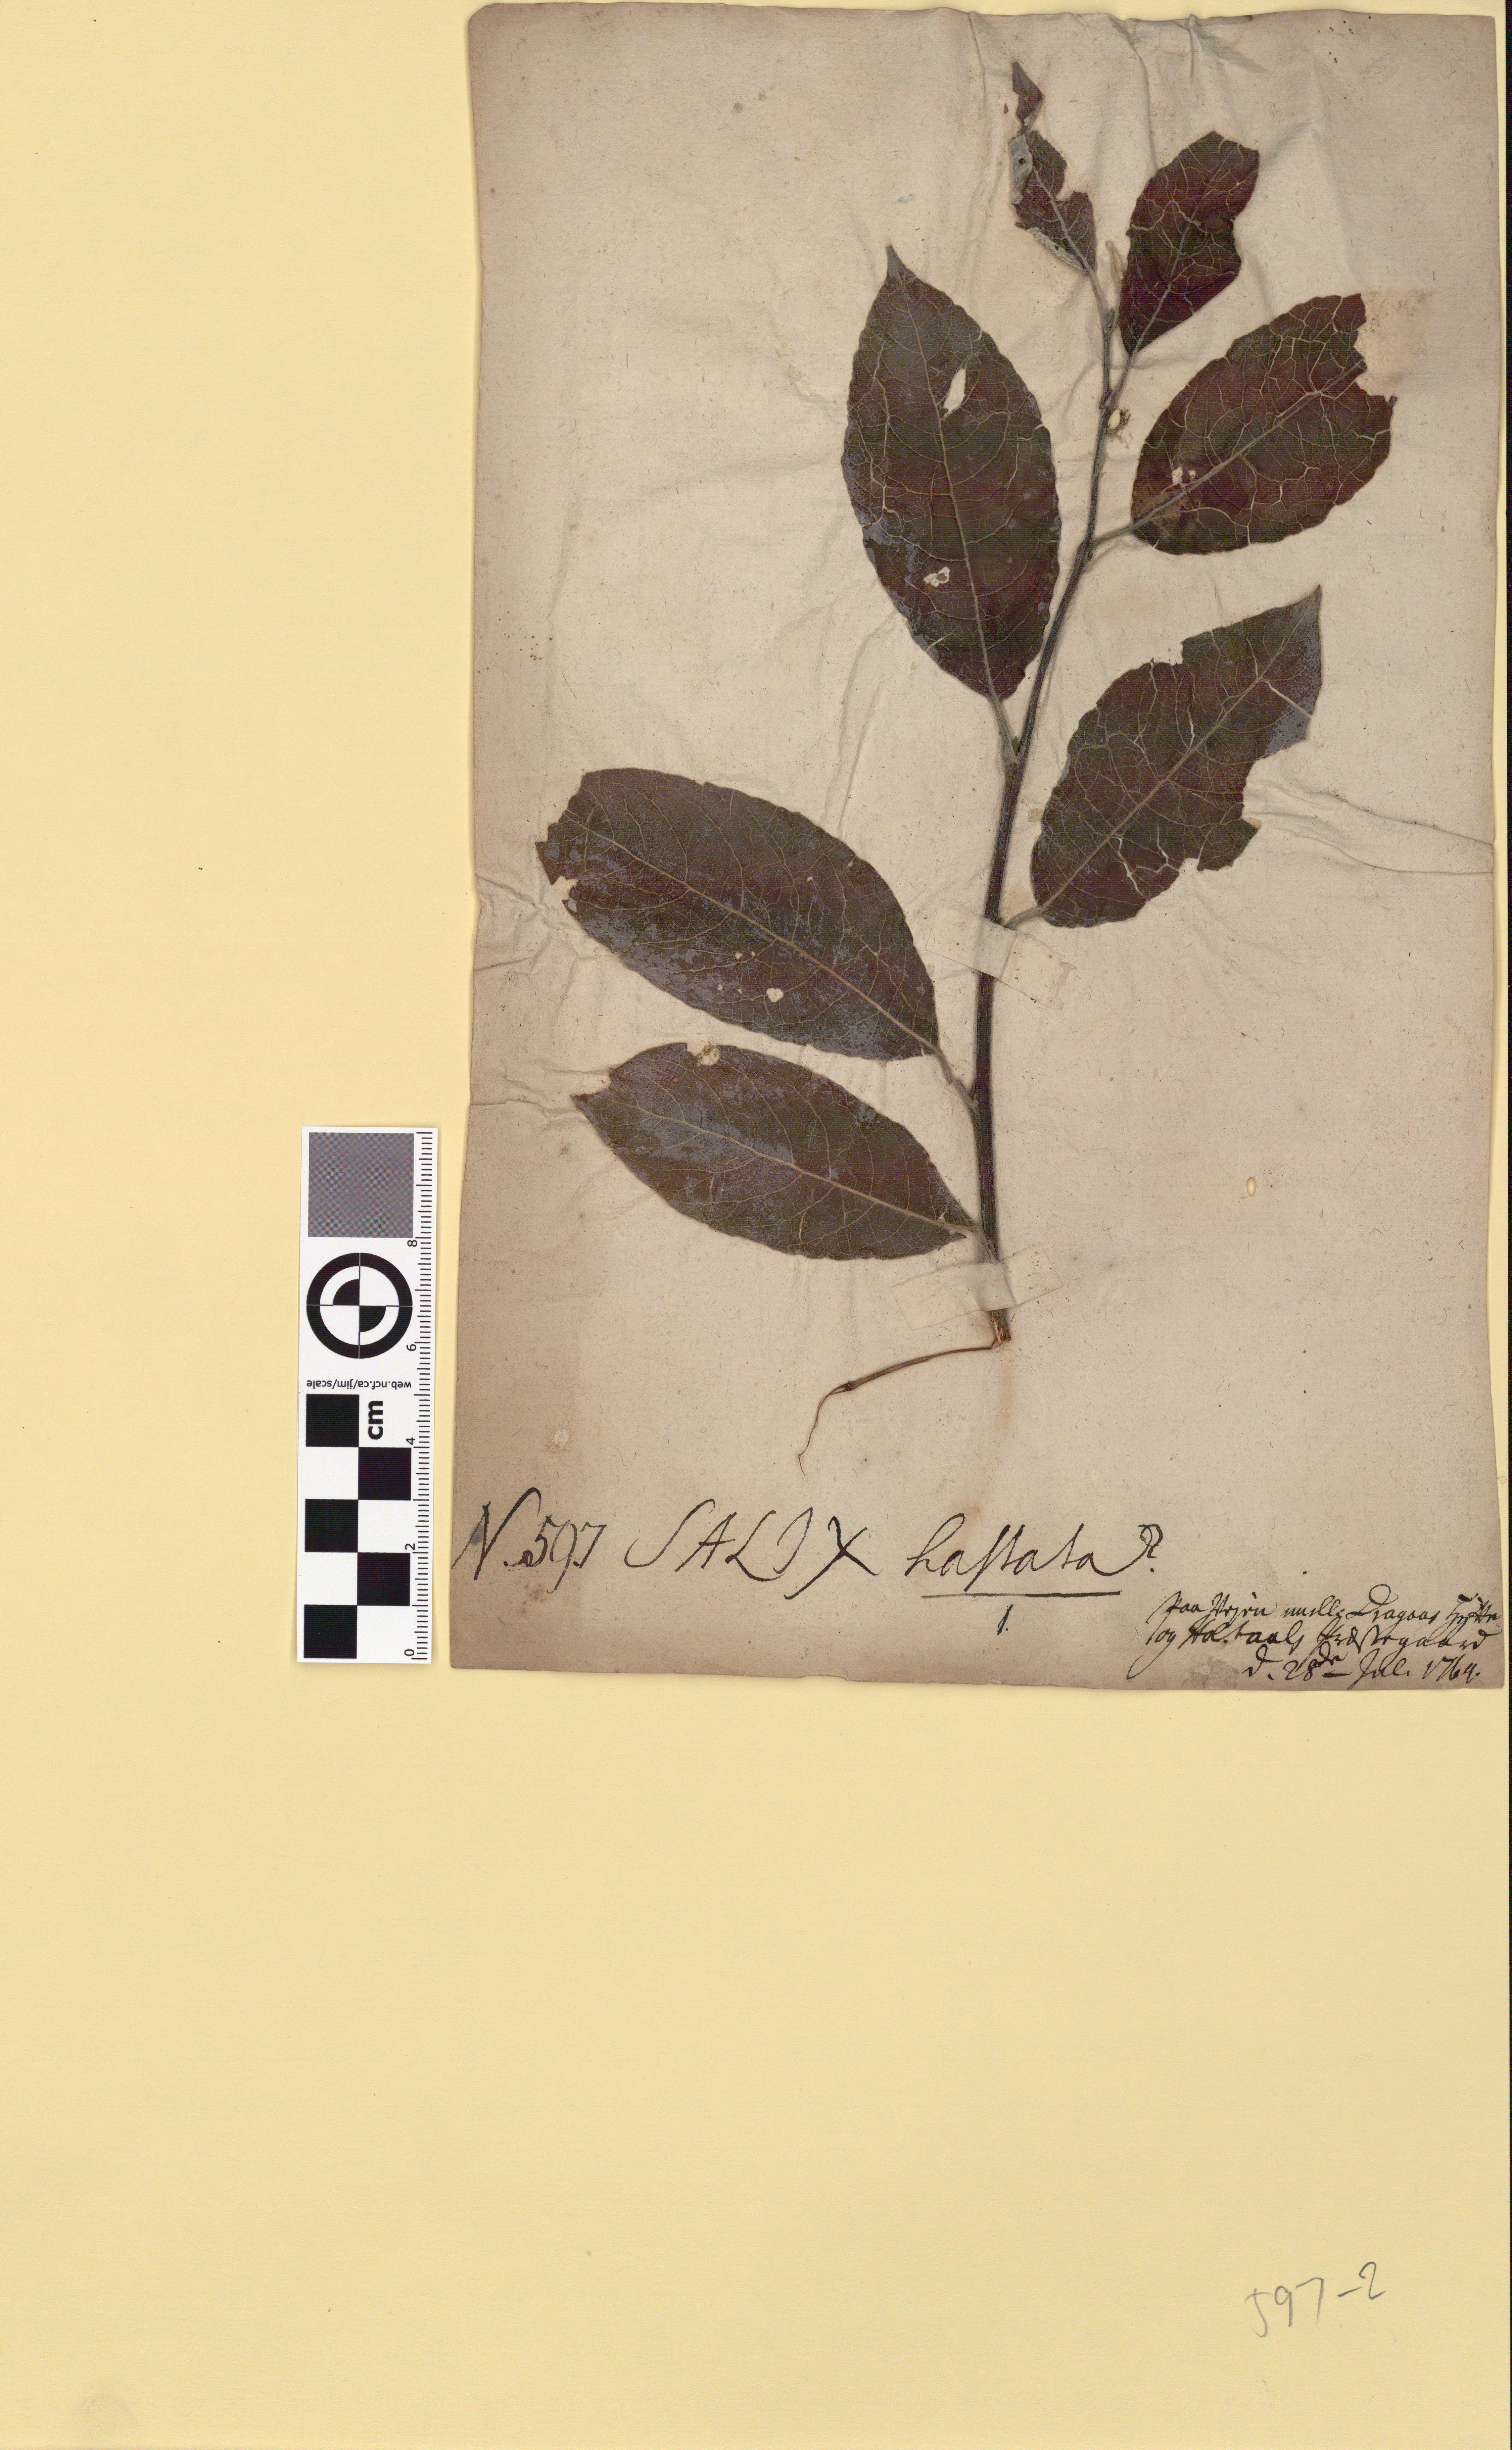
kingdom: Plantae
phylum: Tracheophyta
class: Magnoliopsida
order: Malpighiales
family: Salicaceae
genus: Salix
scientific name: Salix caprea
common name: Goat willow
